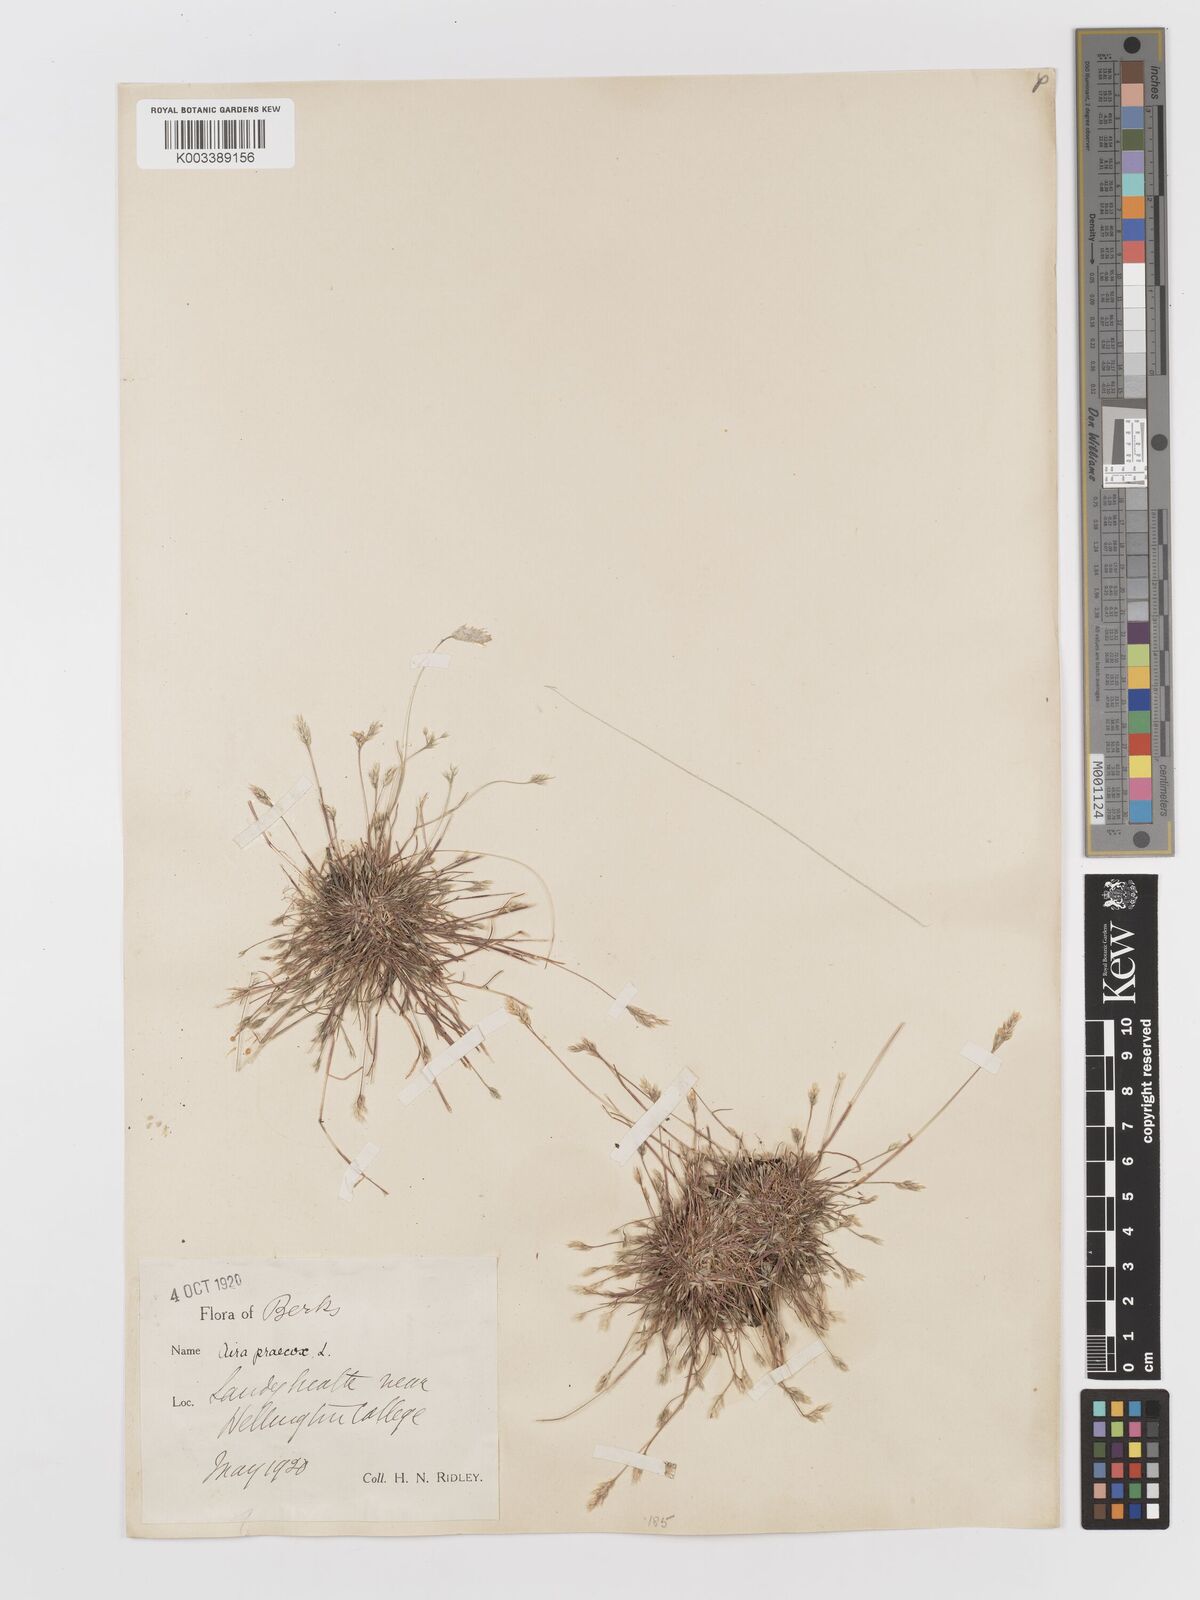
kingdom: Plantae
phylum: Tracheophyta
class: Liliopsida
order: Poales
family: Poaceae
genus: Aira
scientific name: Aira praecox
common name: Early hair-grass
